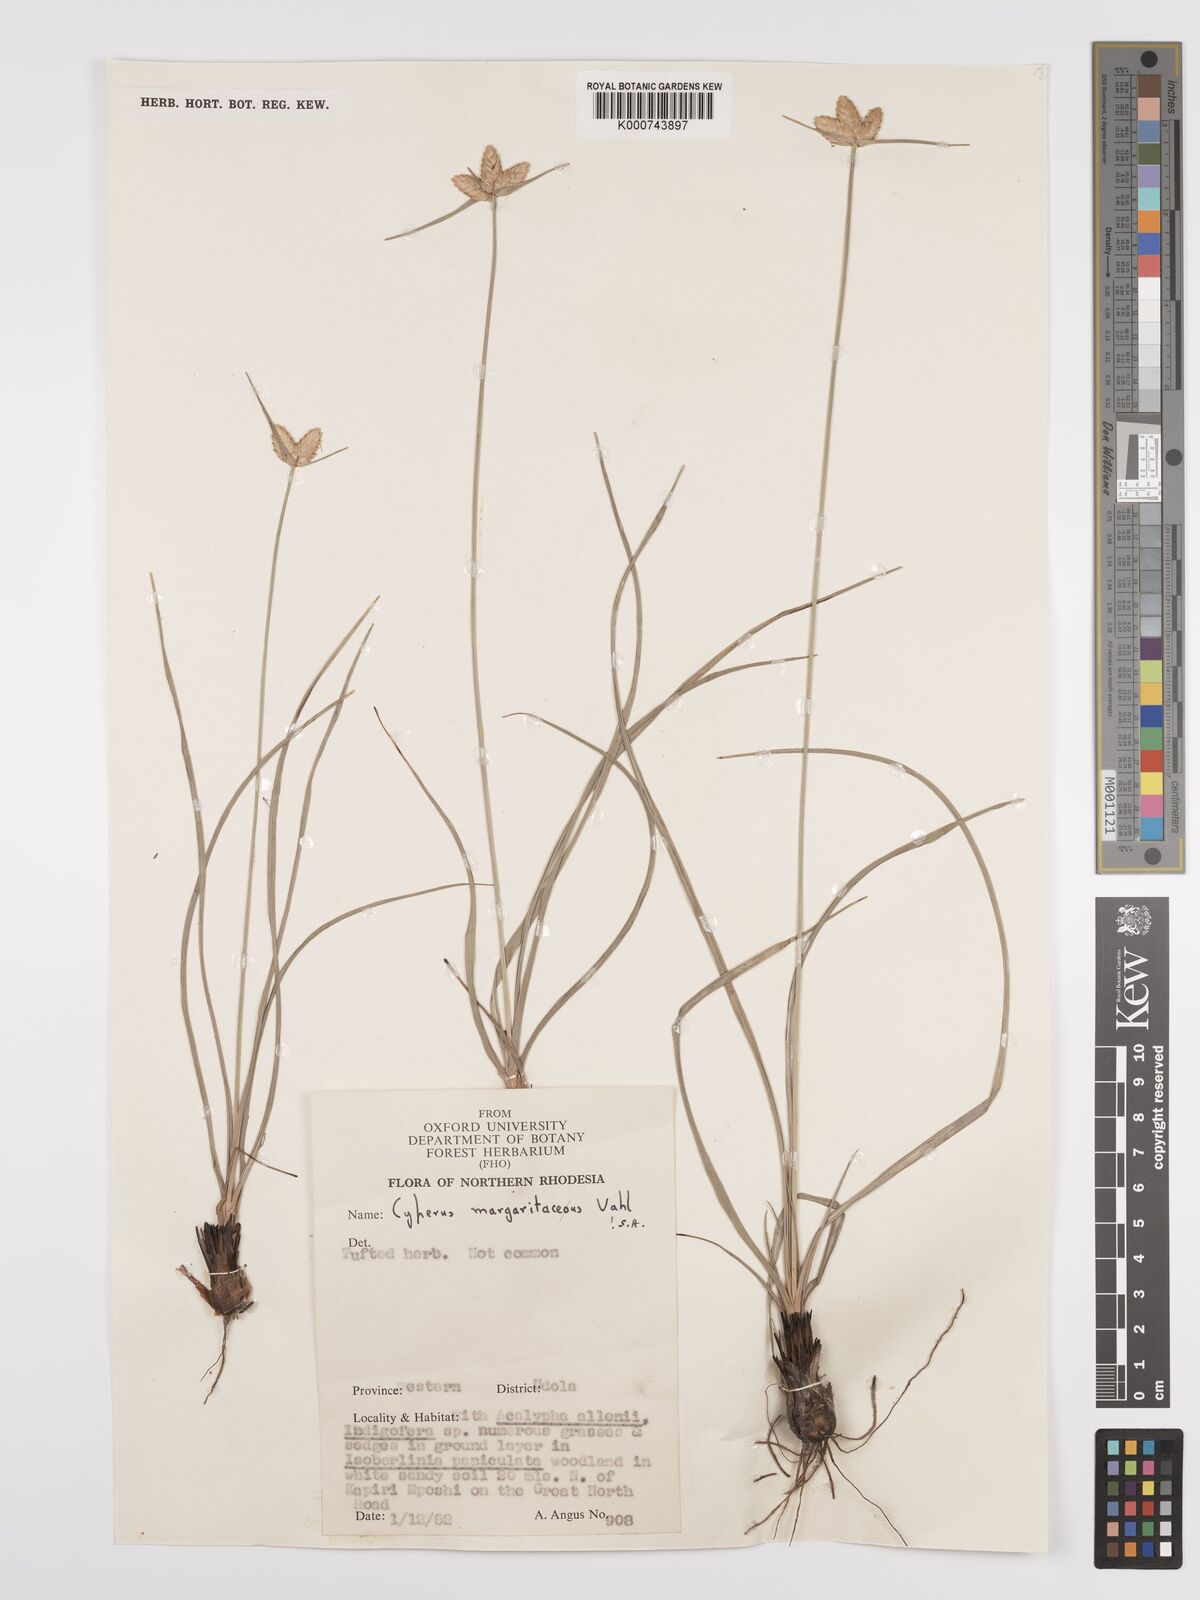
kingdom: Plantae
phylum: Tracheophyta
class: Liliopsida
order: Poales
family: Cyperaceae
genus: Cyperus
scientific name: Cyperus margaritaceus
